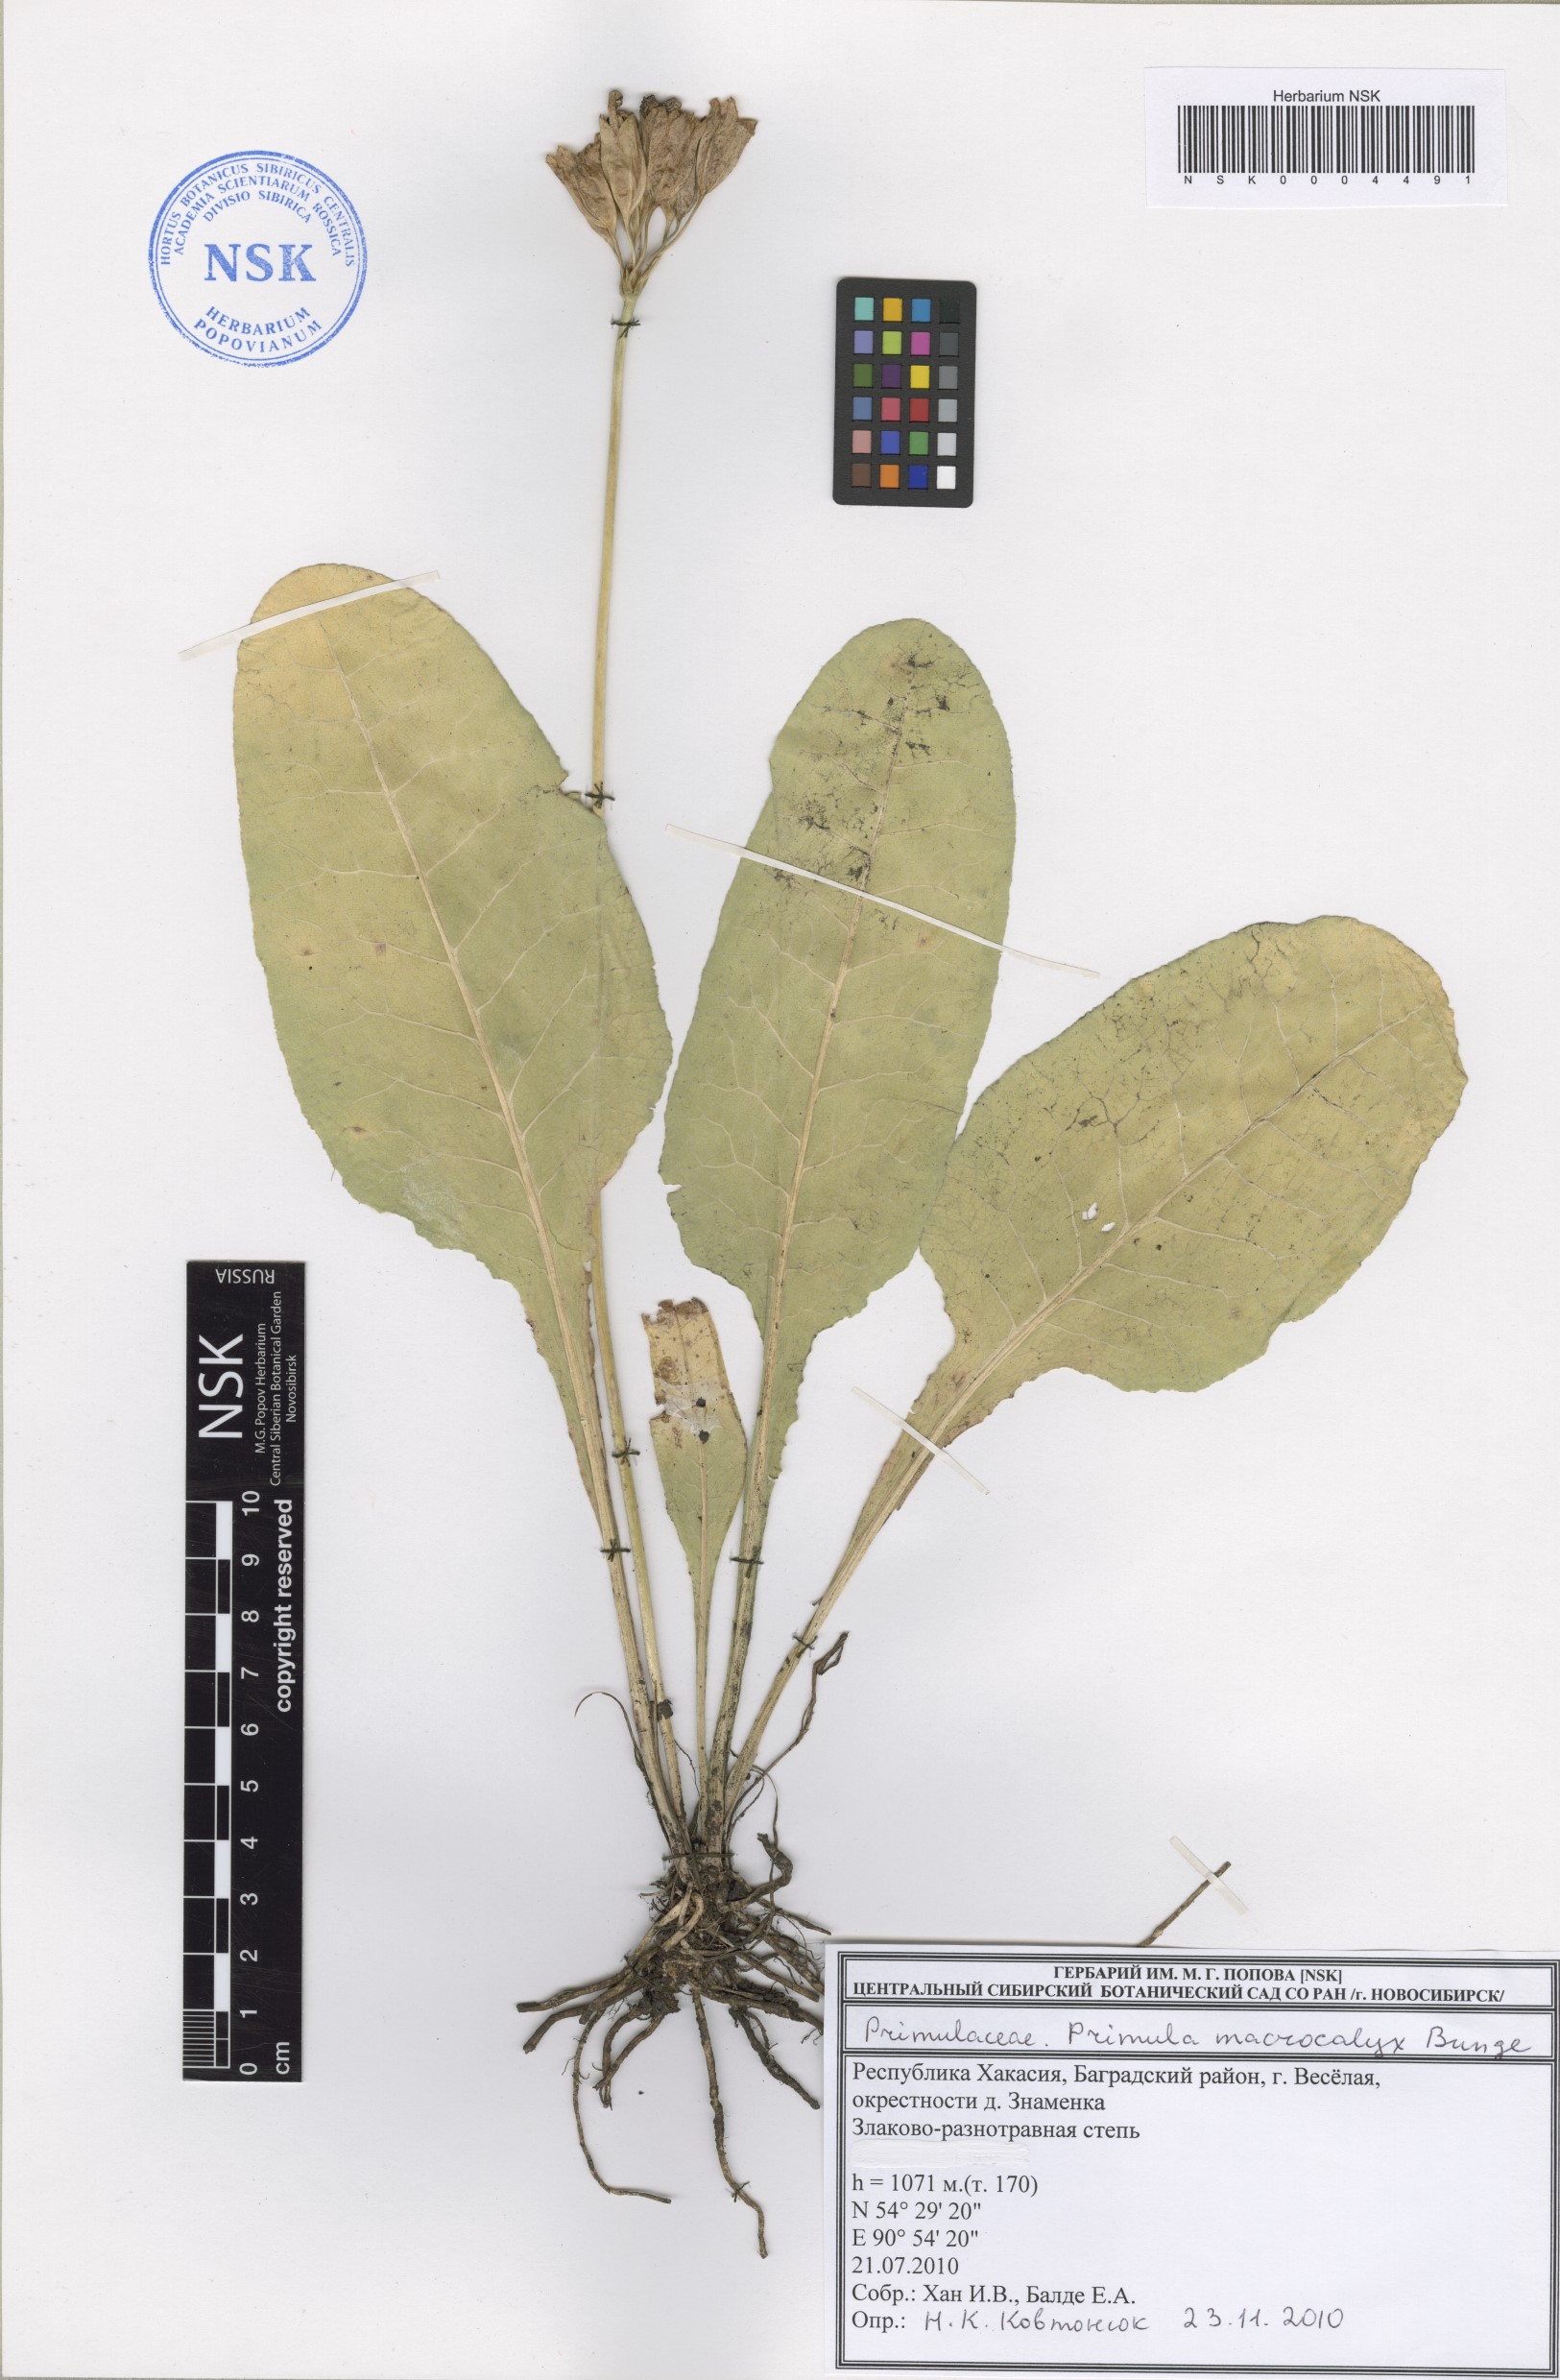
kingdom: Plantae
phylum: Tracheophyta
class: Magnoliopsida
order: Ericales
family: Primulaceae
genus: Primula
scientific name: Primula veris
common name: Cowslip
